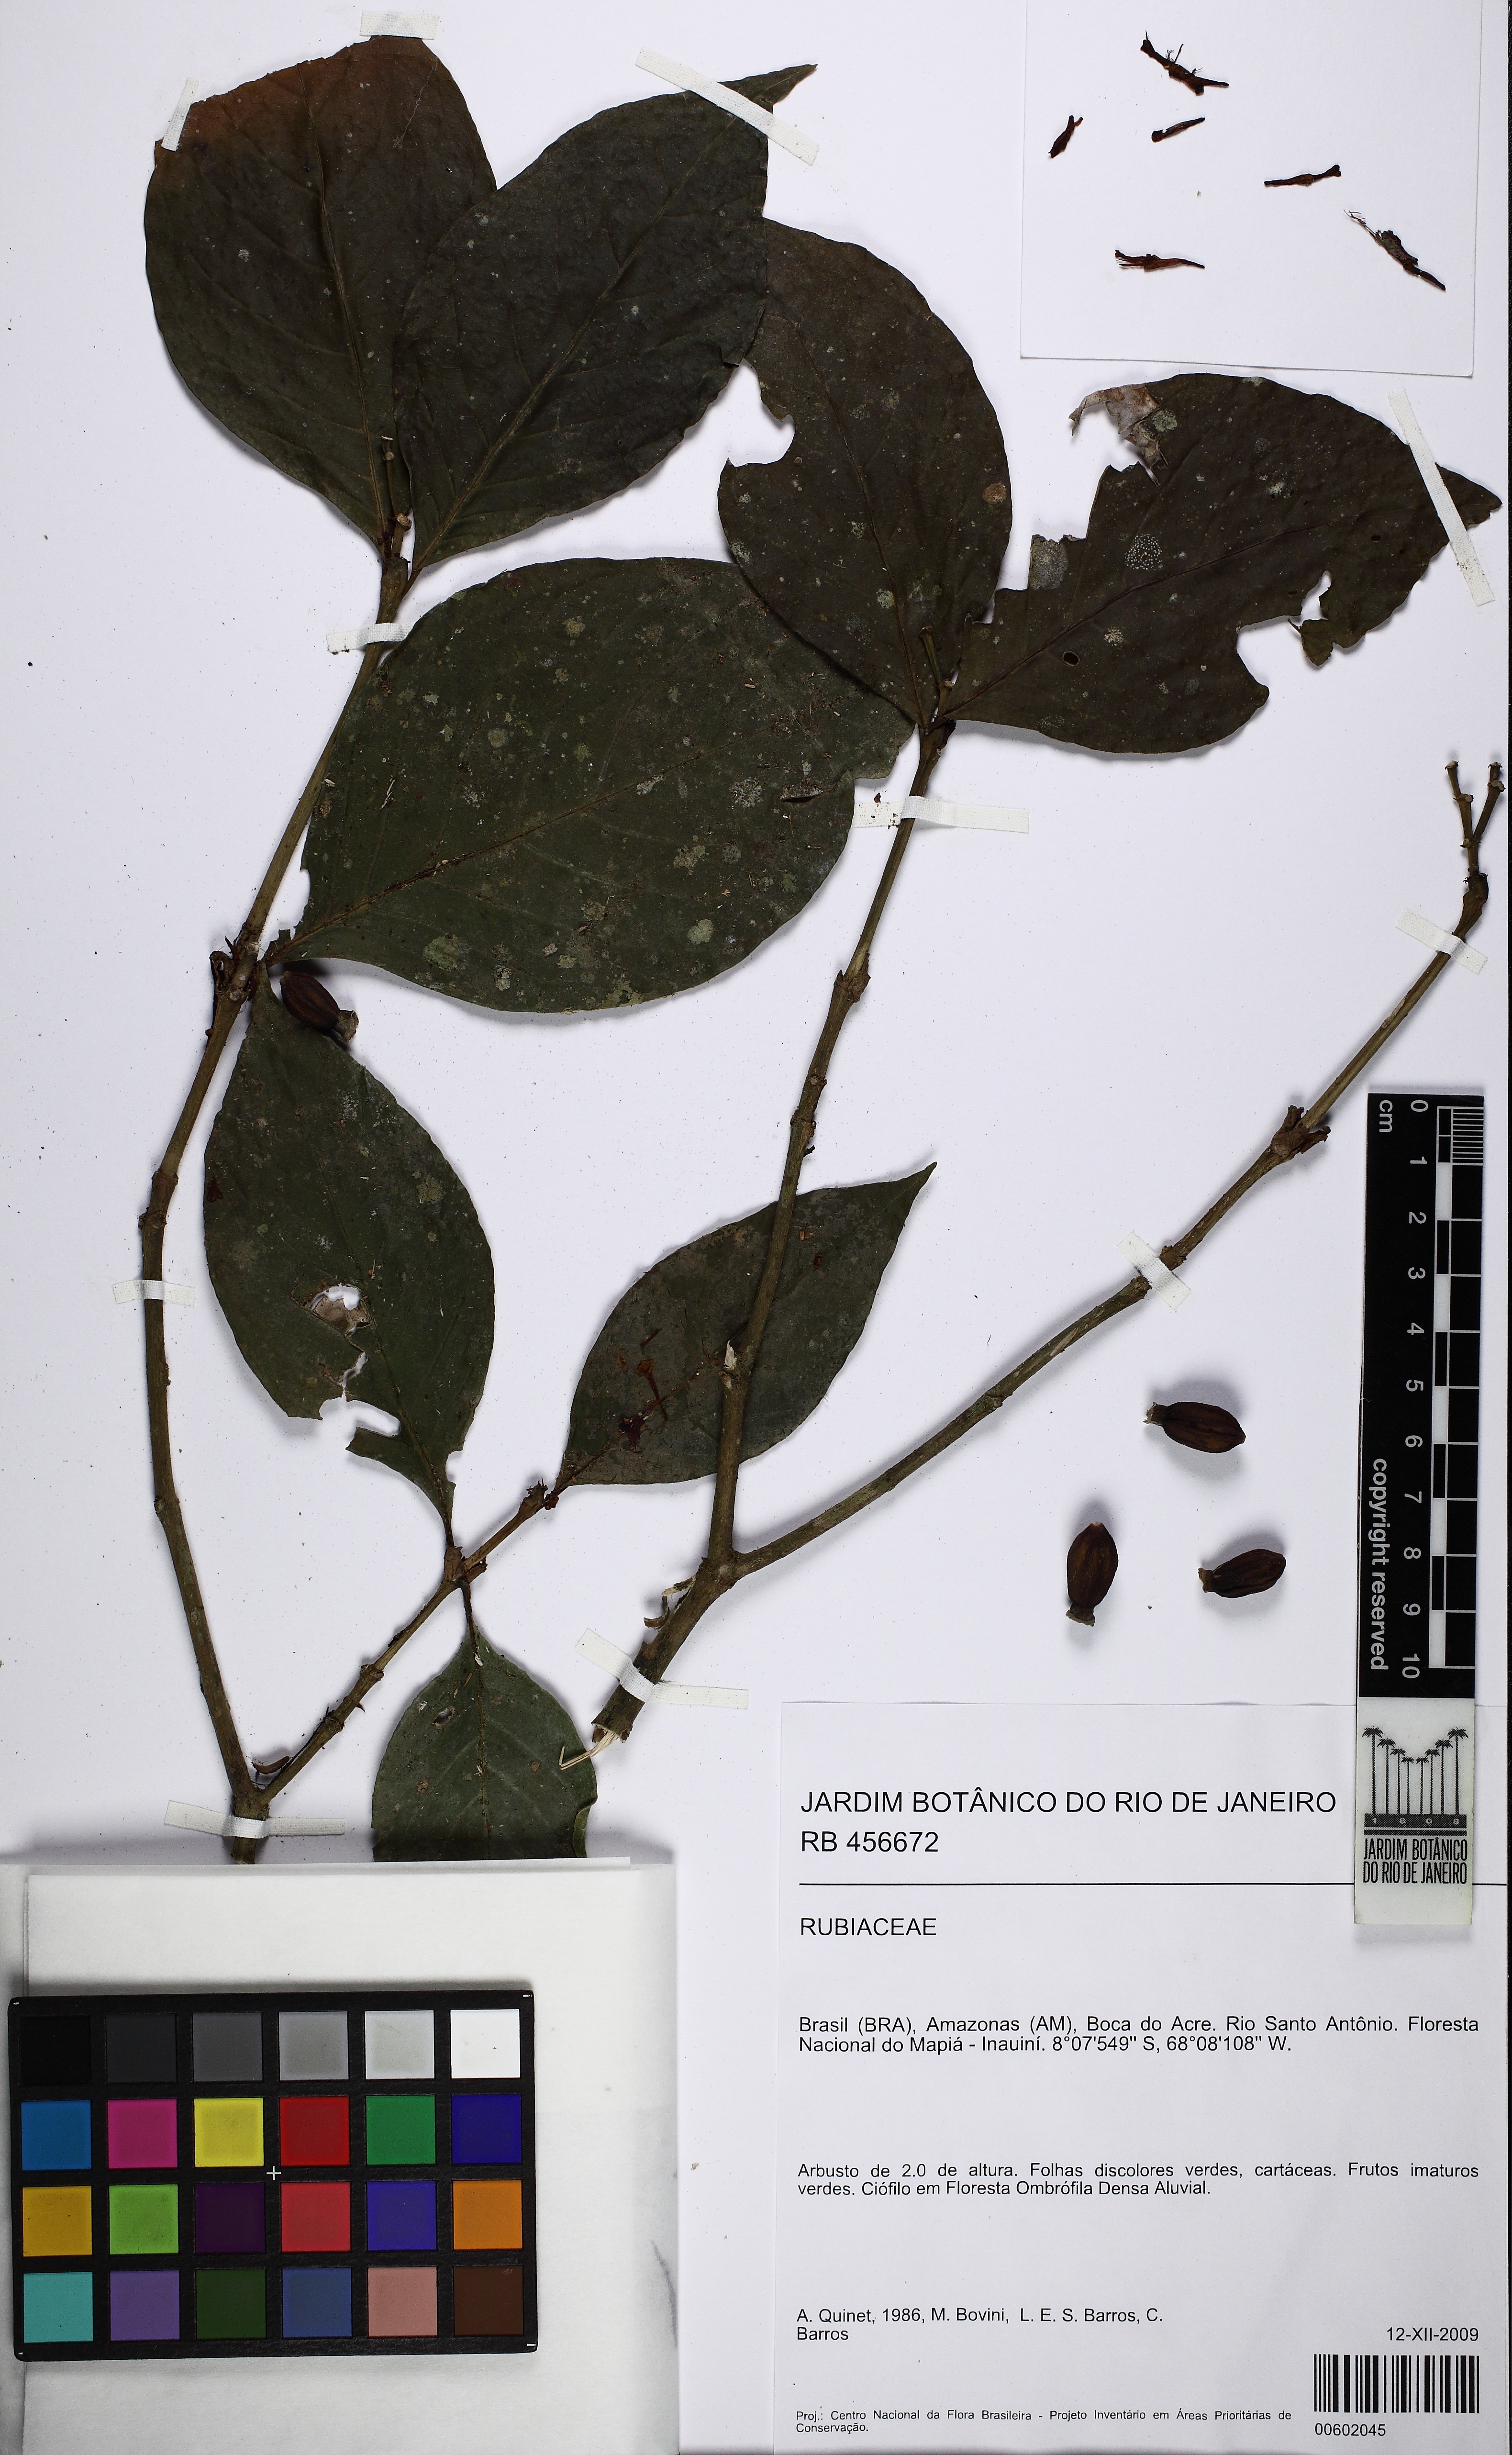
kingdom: Plantae
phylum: Tracheophyta
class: Magnoliopsida
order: Gentianales
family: Rubiaceae
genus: Rudgea
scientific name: Rudgea loretensis
